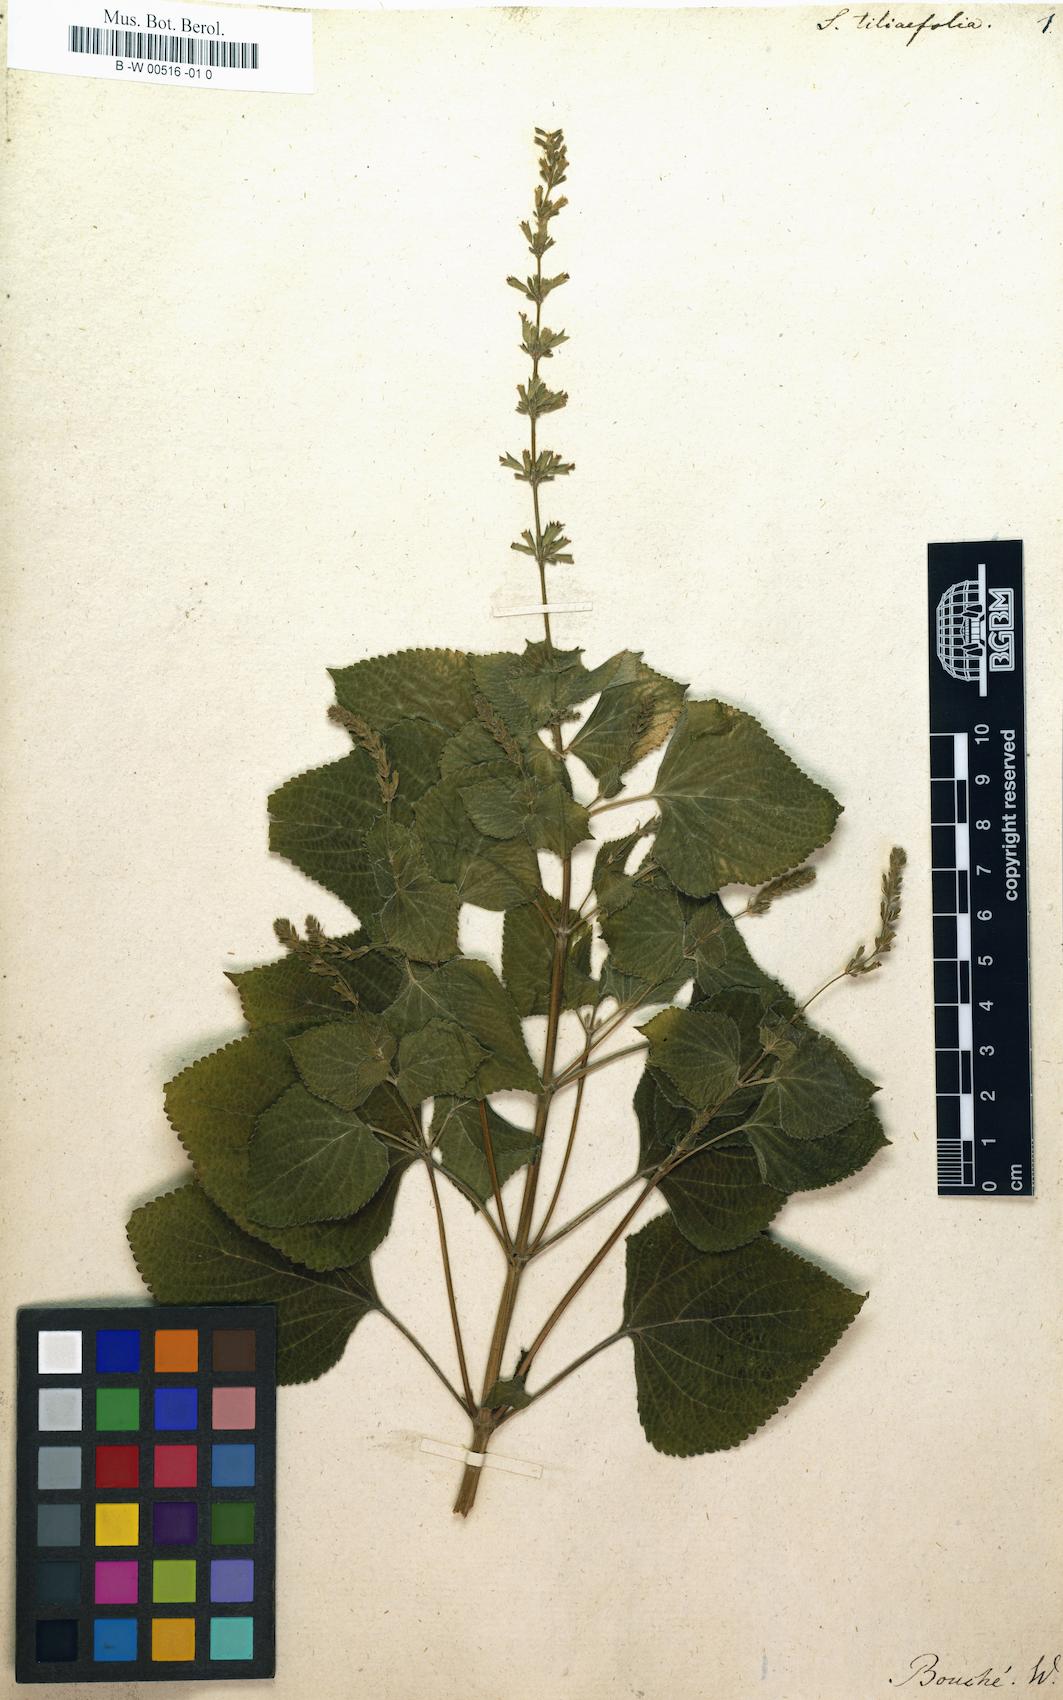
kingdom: Plantae
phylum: Tracheophyta
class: Magnoliopsida
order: Lamiales
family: Lamiaceae
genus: Salvia
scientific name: Salvia tiliifolia
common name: Lindenleaf sage
